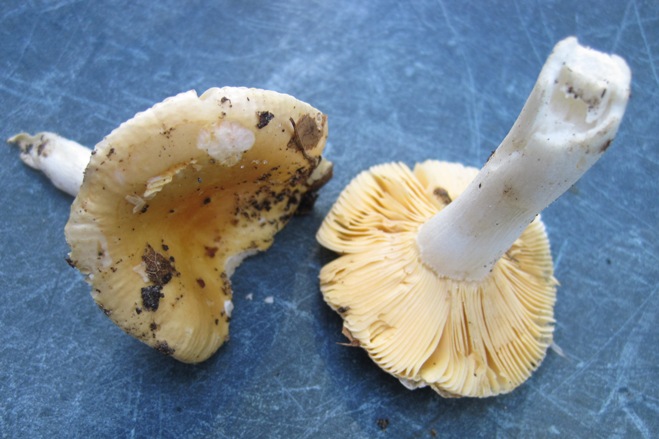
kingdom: Fungi
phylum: Basidiomycota
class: Agaricomycetes
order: Russulales
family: Russulaceae
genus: Russula
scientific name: Russula risigallina
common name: abrikos-skørhat
